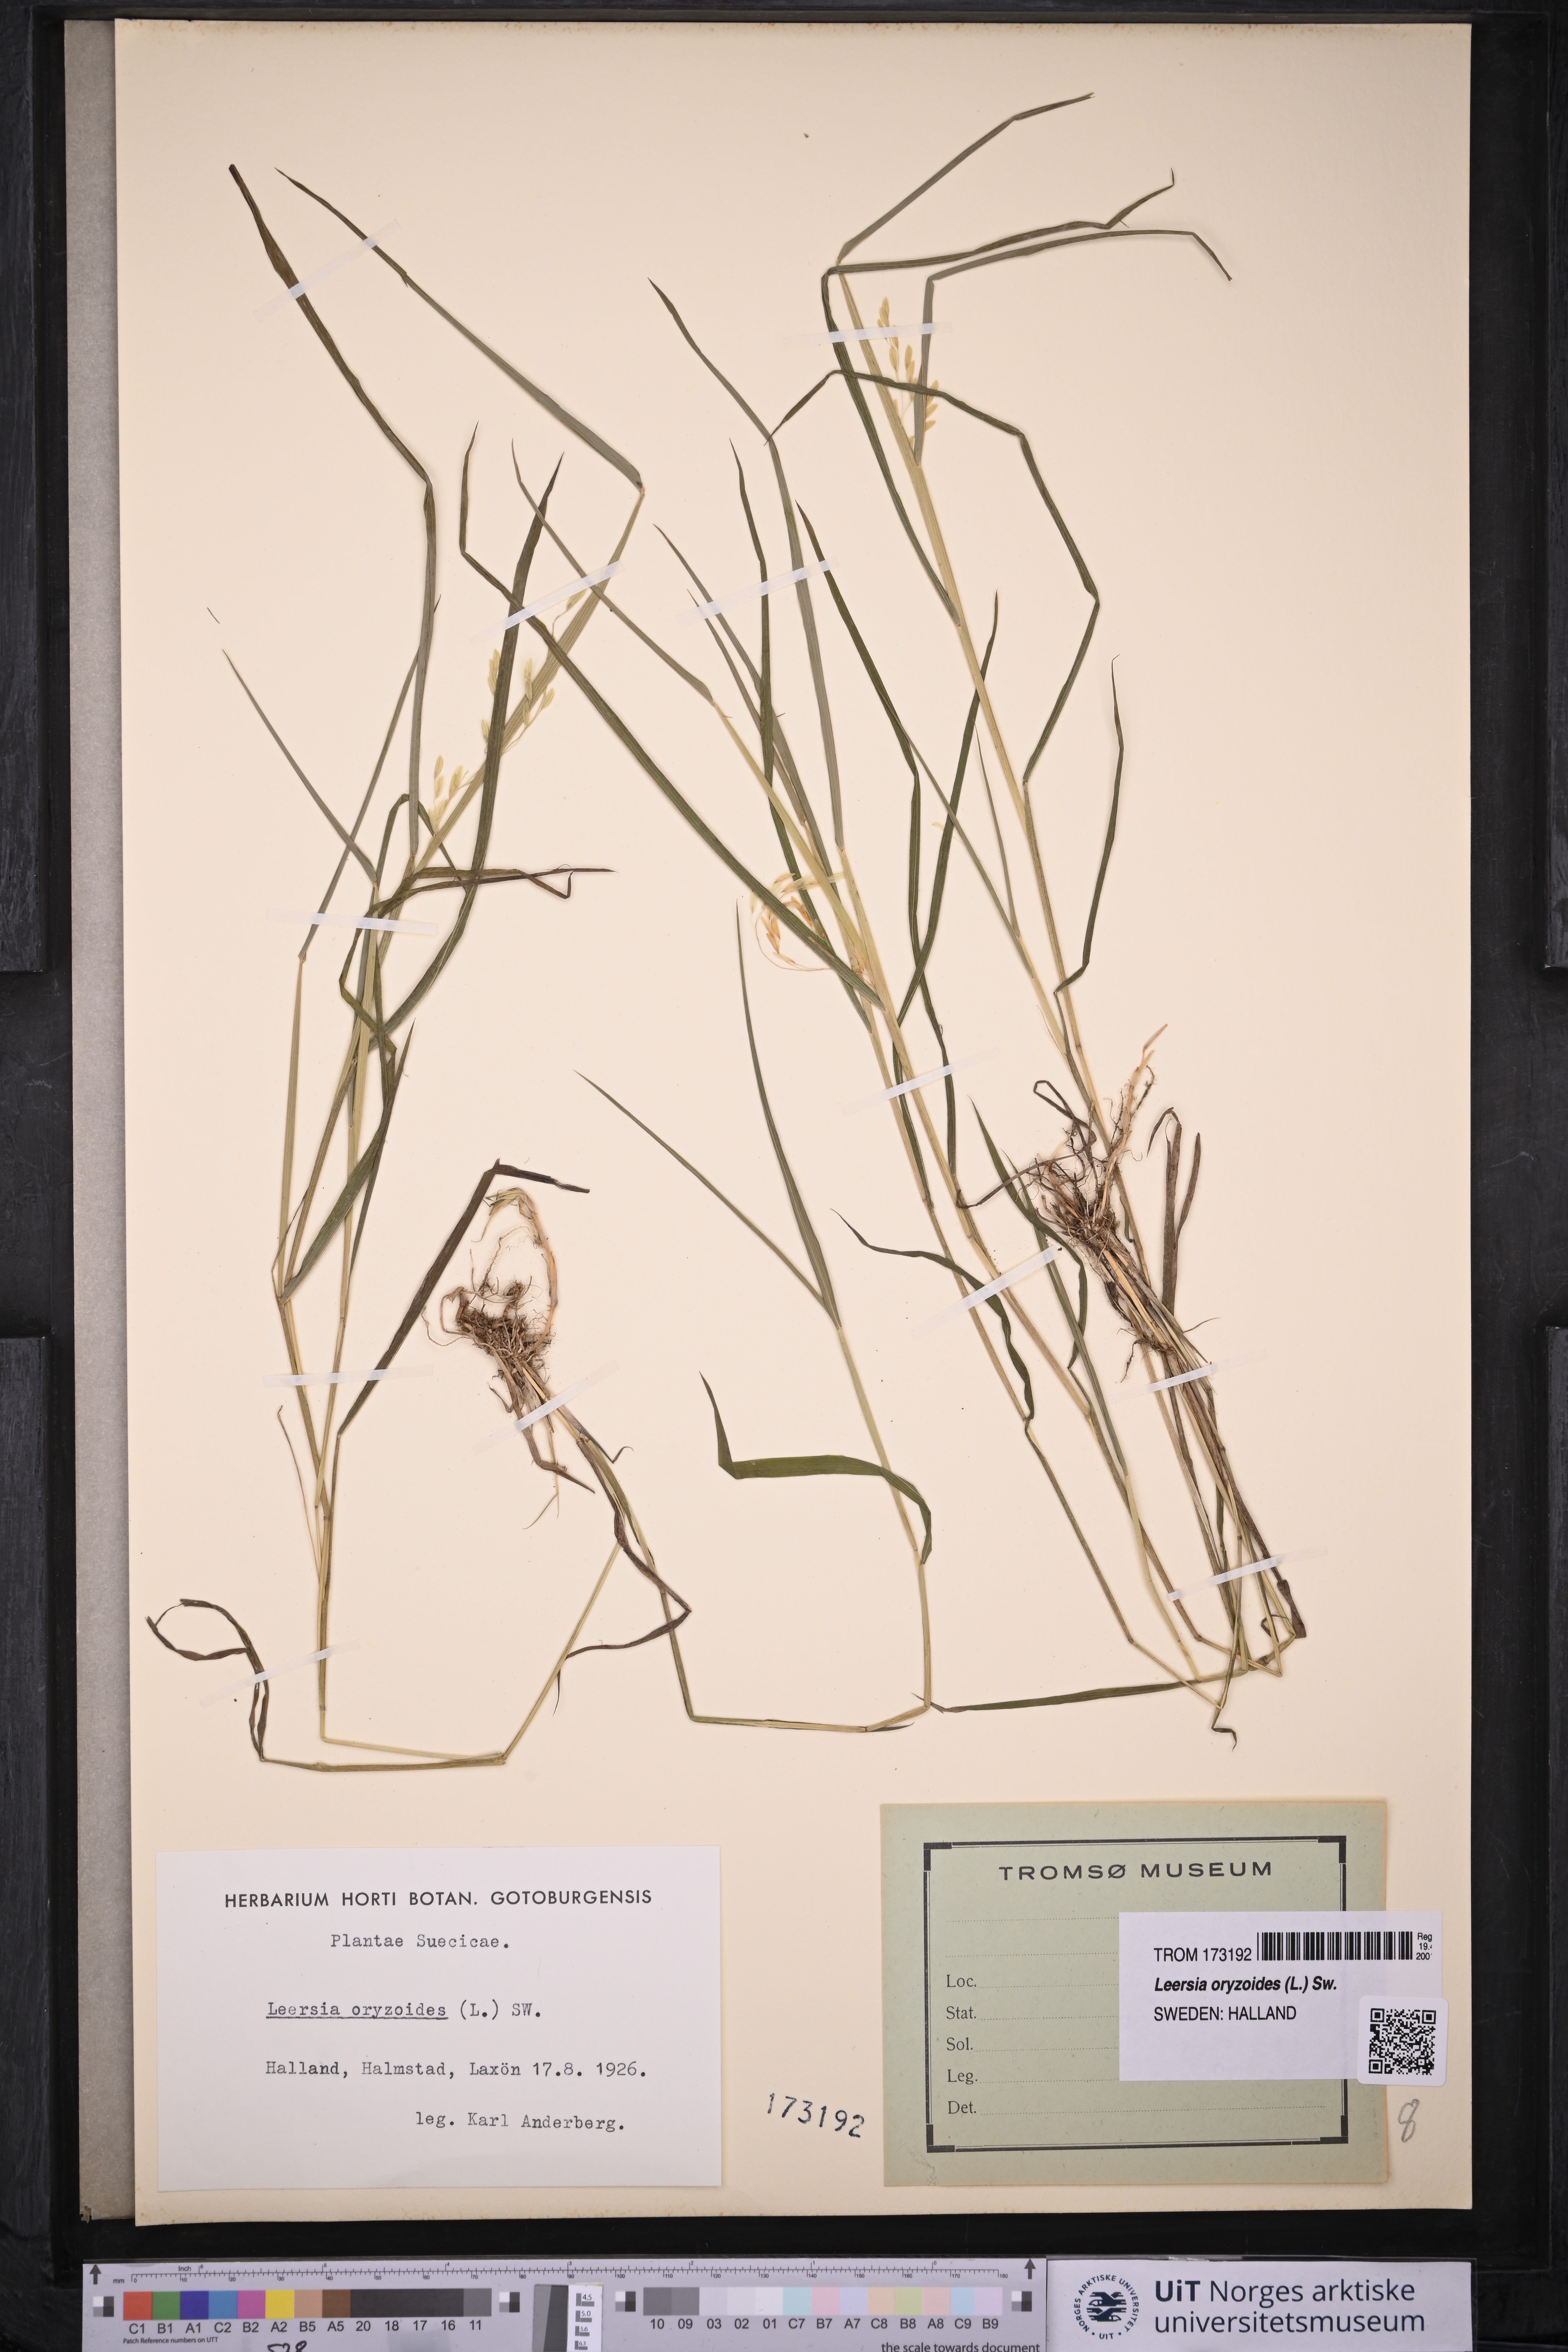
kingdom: Plantae
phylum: Tracheophyta
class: Liliopsida
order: Poales
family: Poaceae
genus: Leersia
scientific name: Leersia oryzoides
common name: Cut-grass
